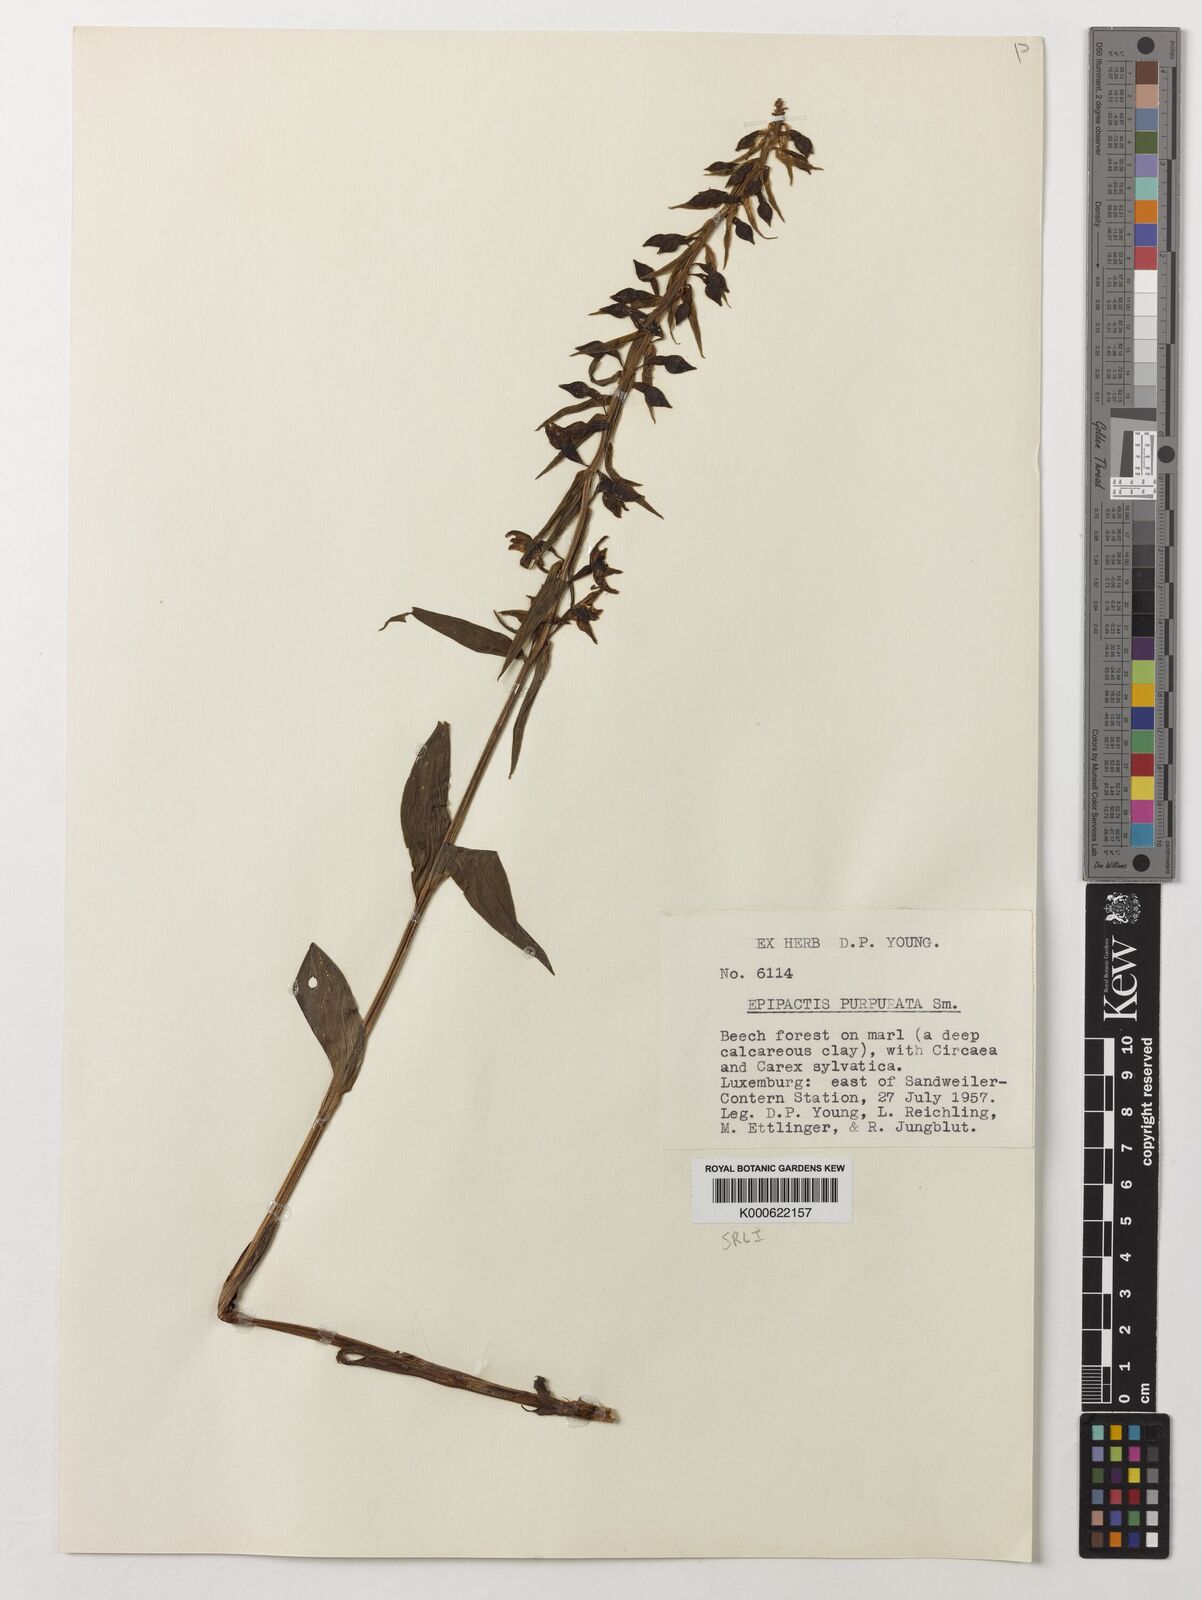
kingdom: Plantae
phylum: Tracheophyta
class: Liliopsida
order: Asparagales
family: Orchidaceae
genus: Epipactis
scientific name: Epipactis purpurata
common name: Violet helleborine
